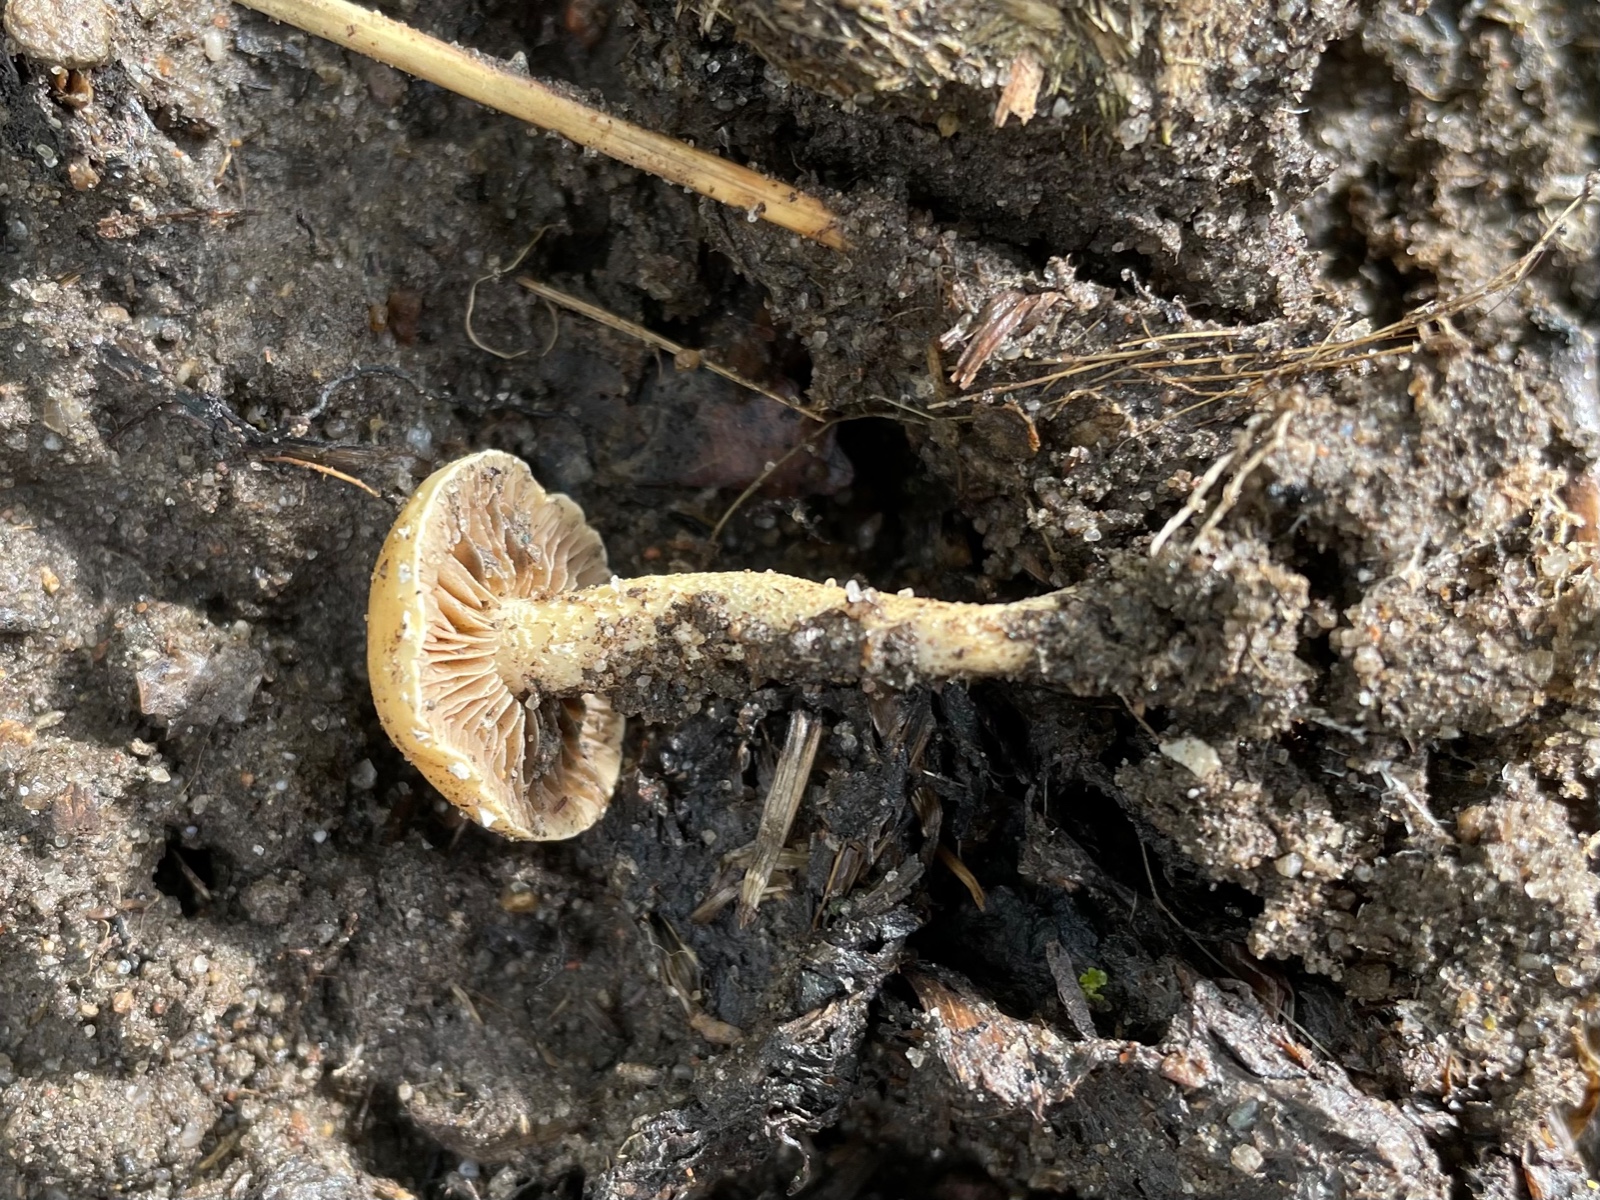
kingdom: Fungi
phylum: Basidiomycota
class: Agaricomycetes
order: Agaricales
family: Strophariaceae
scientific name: Strophariaceae
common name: bredbladfamilien
